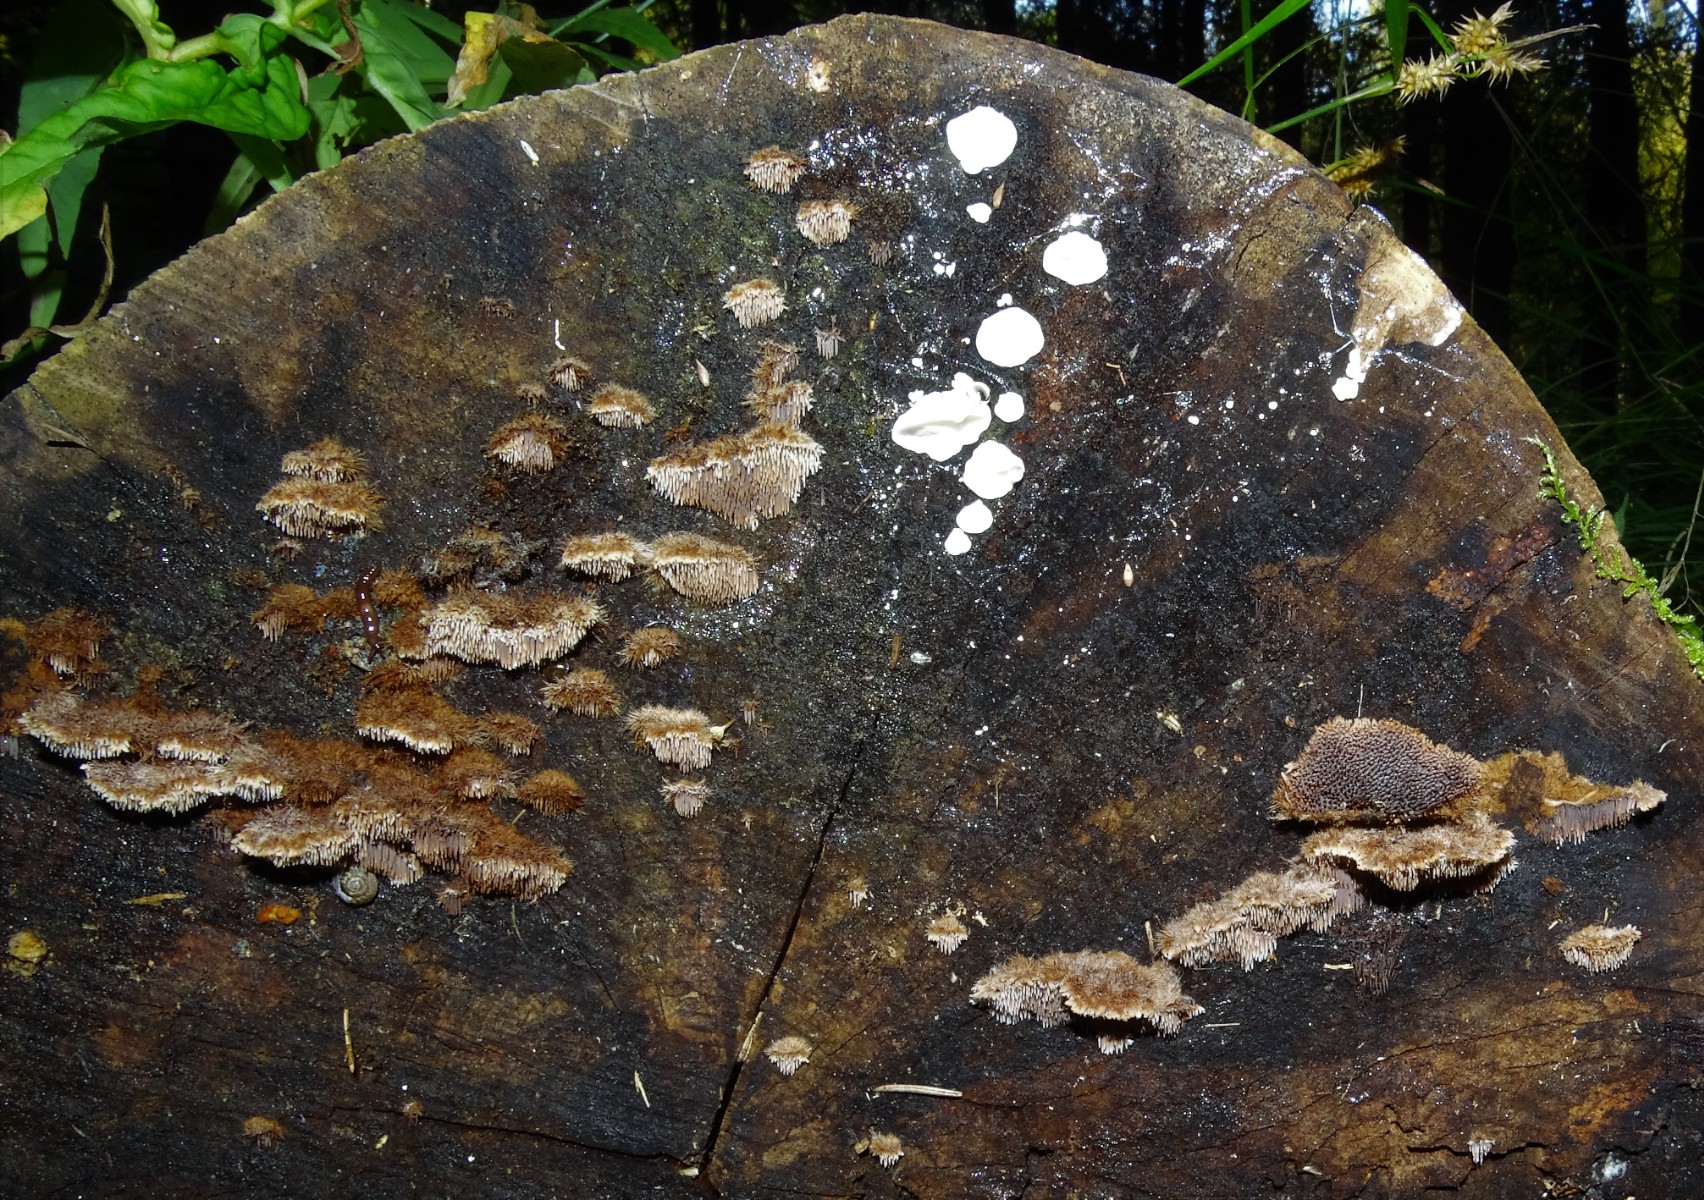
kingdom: Fungi
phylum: Basidiomycota
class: Agaricomycetes
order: Russulales
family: Bondarzewiaceae
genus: Gloiodon
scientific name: Gloiodon strigosus
